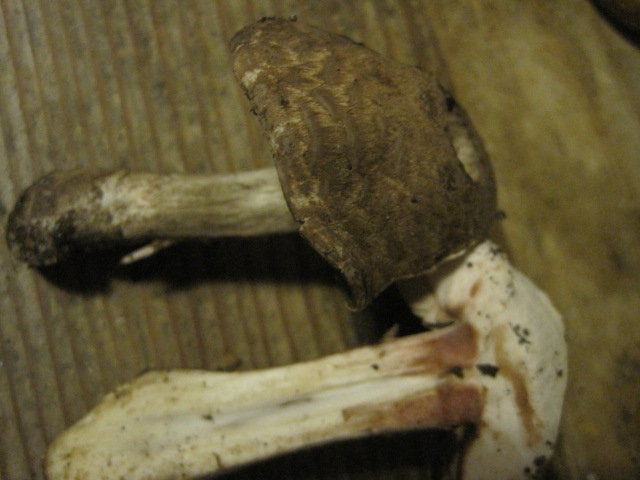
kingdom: Fungi
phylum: Basidiomycota
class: Agaricomycetes
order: Agaricales
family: Agaricaceae
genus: Agaricus
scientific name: Agaricus sylvaticus
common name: lille blod-champignon
